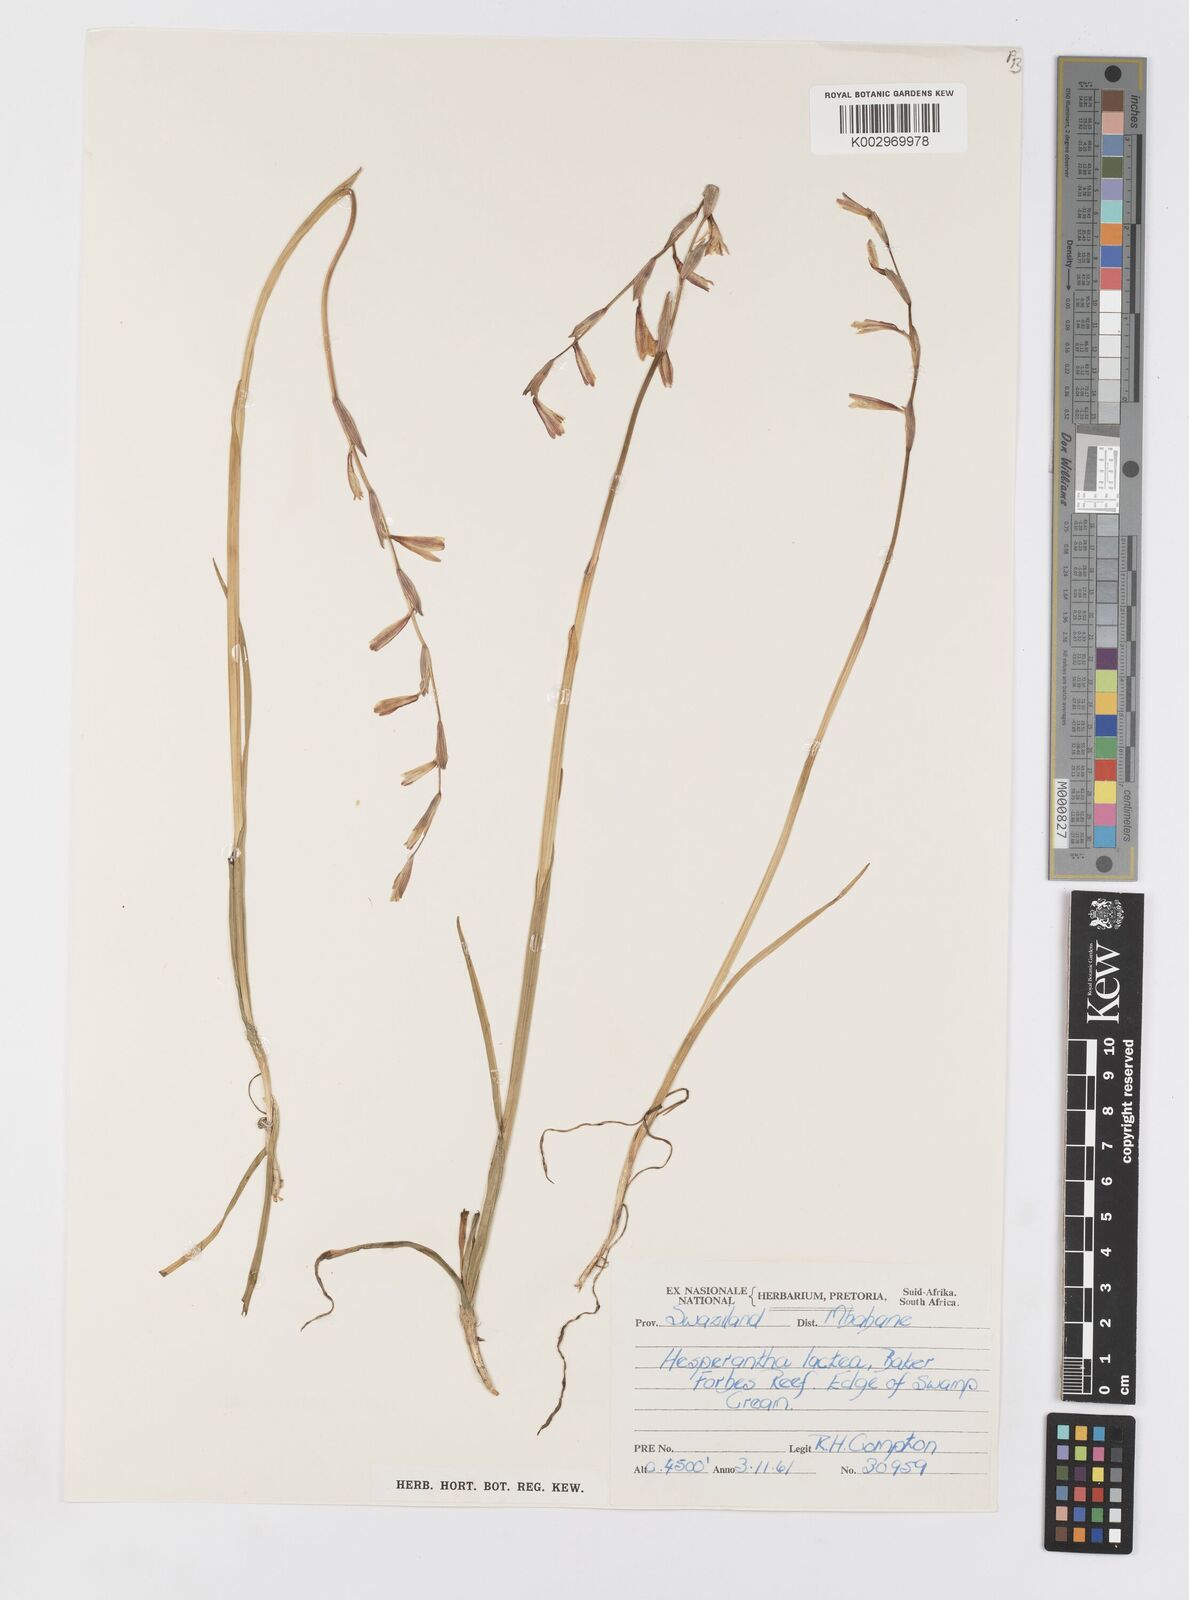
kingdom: Plantae
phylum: Tracheophyta
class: Liliopsida
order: Asparagales
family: Iridaceae
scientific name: Iridaceae
